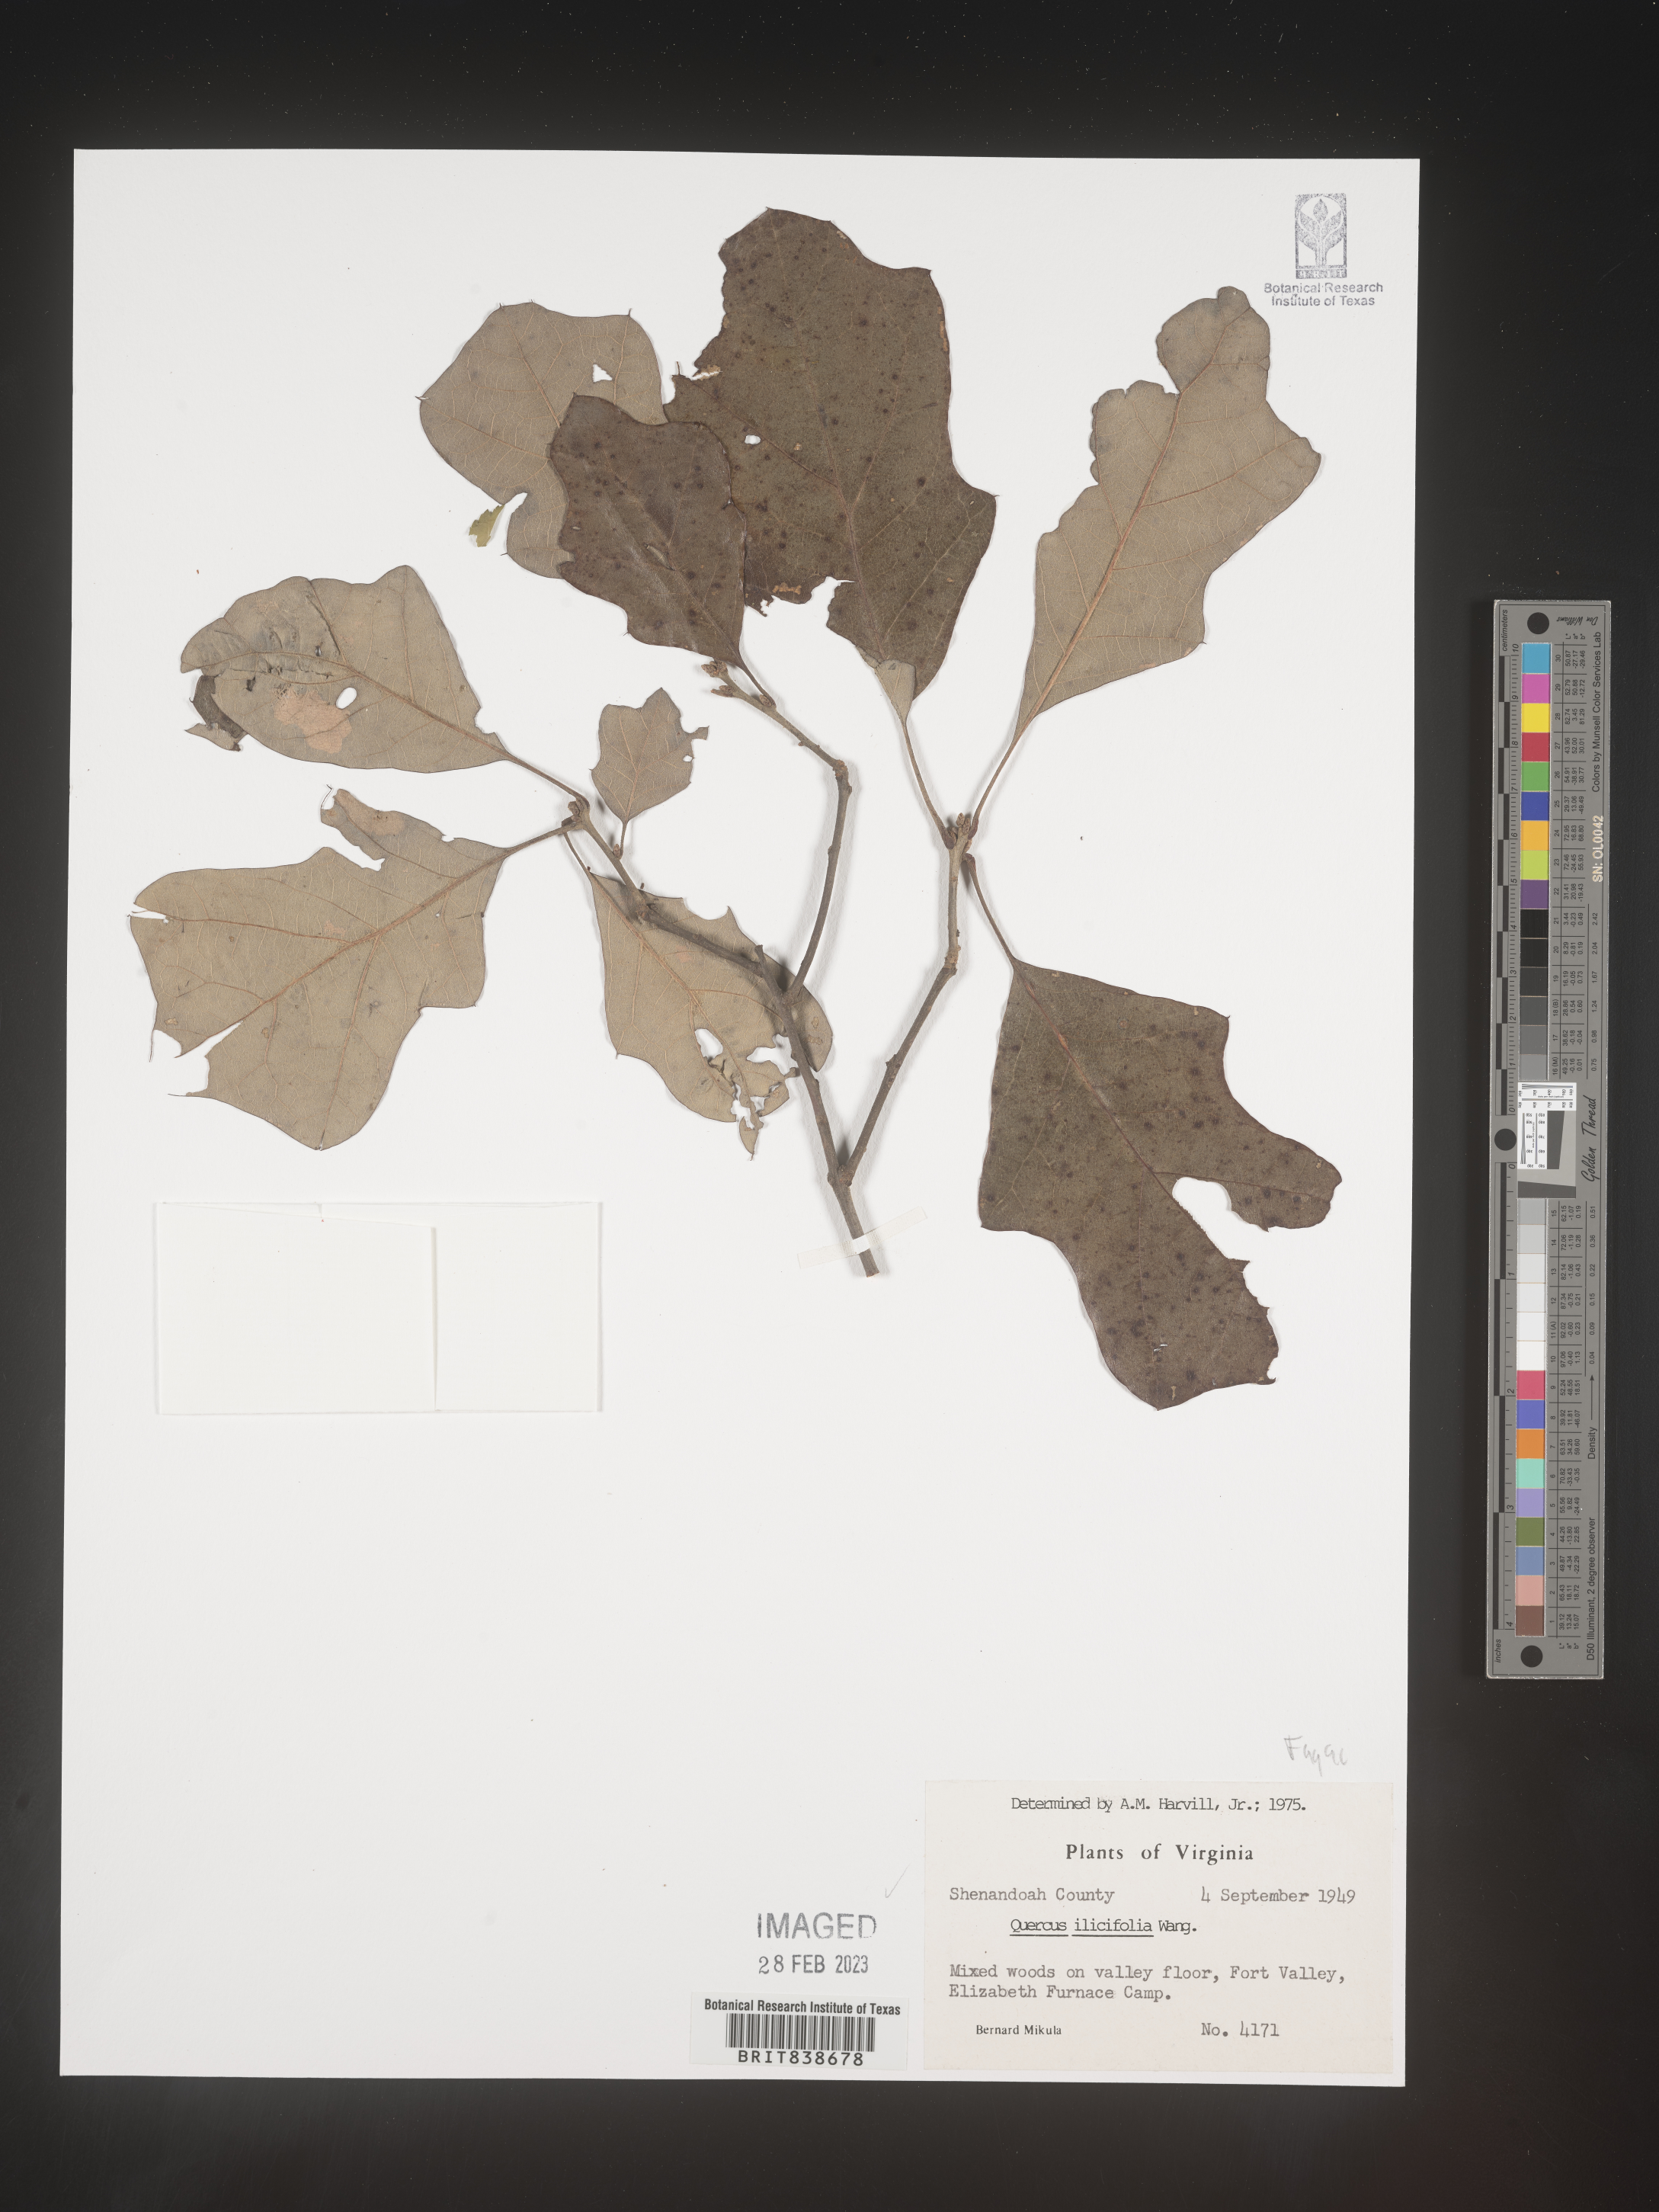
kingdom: Plantae
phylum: Tracheophyta
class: Magnoliopsida
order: Fagales
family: Fagaceae
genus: Quercus
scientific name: Quercus ilicifolia
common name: Bear oak
